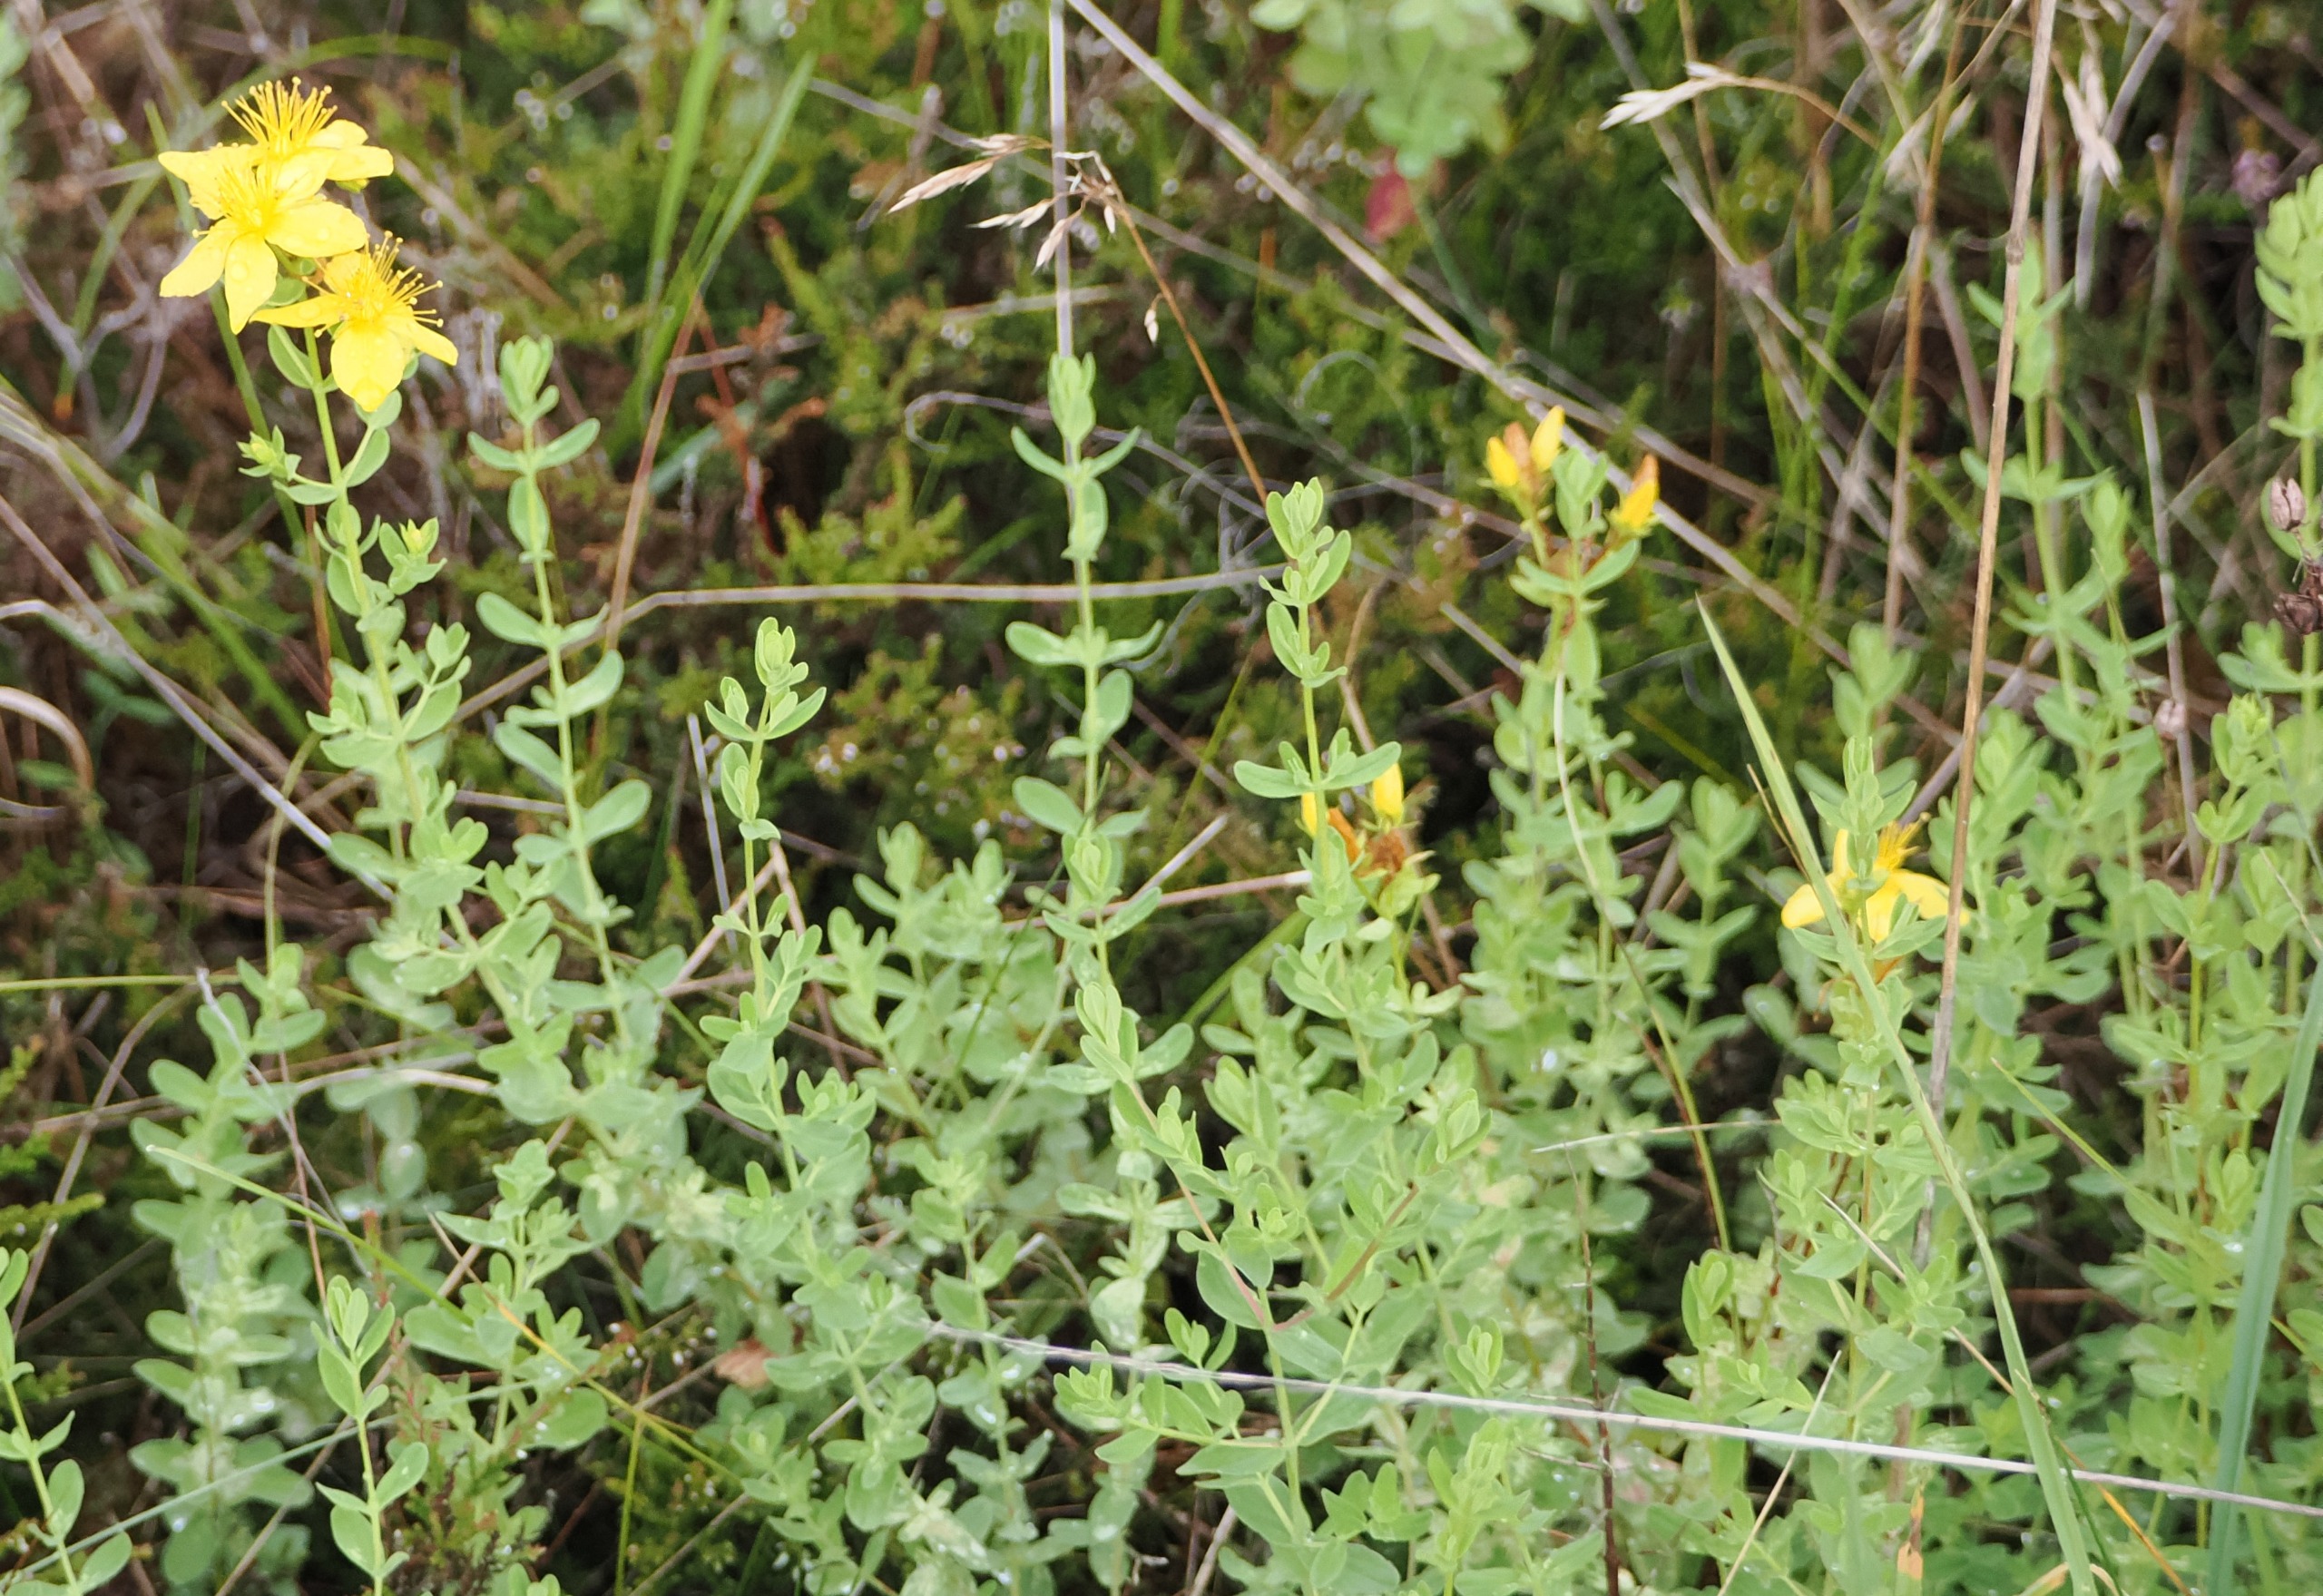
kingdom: Plantae
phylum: Tracheophyta
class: Magnoliopsida
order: Malpighiales
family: Hypericaceae
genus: Hypericum
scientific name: Hypericum perforatum
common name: Prikbladet perikon
